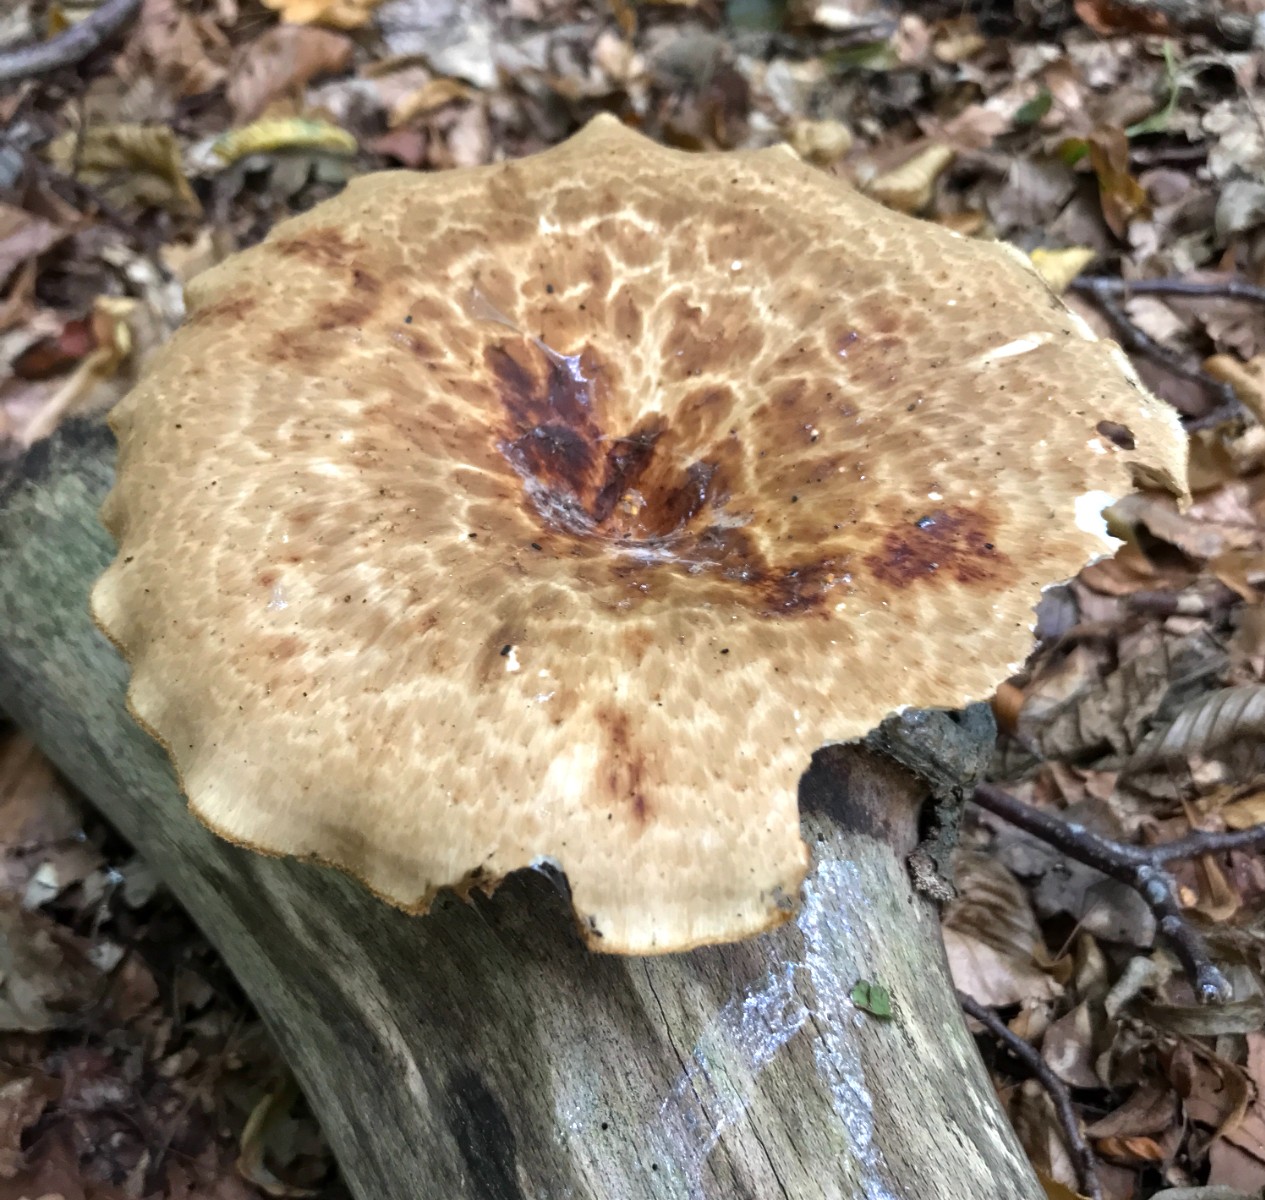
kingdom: Fungi
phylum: Basidiomycota
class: Agaricomycetes
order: Polyporales
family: Polyporaceae
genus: Polyporus
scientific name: Polyporus tuberaster
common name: knoldet stilkporesvamp
